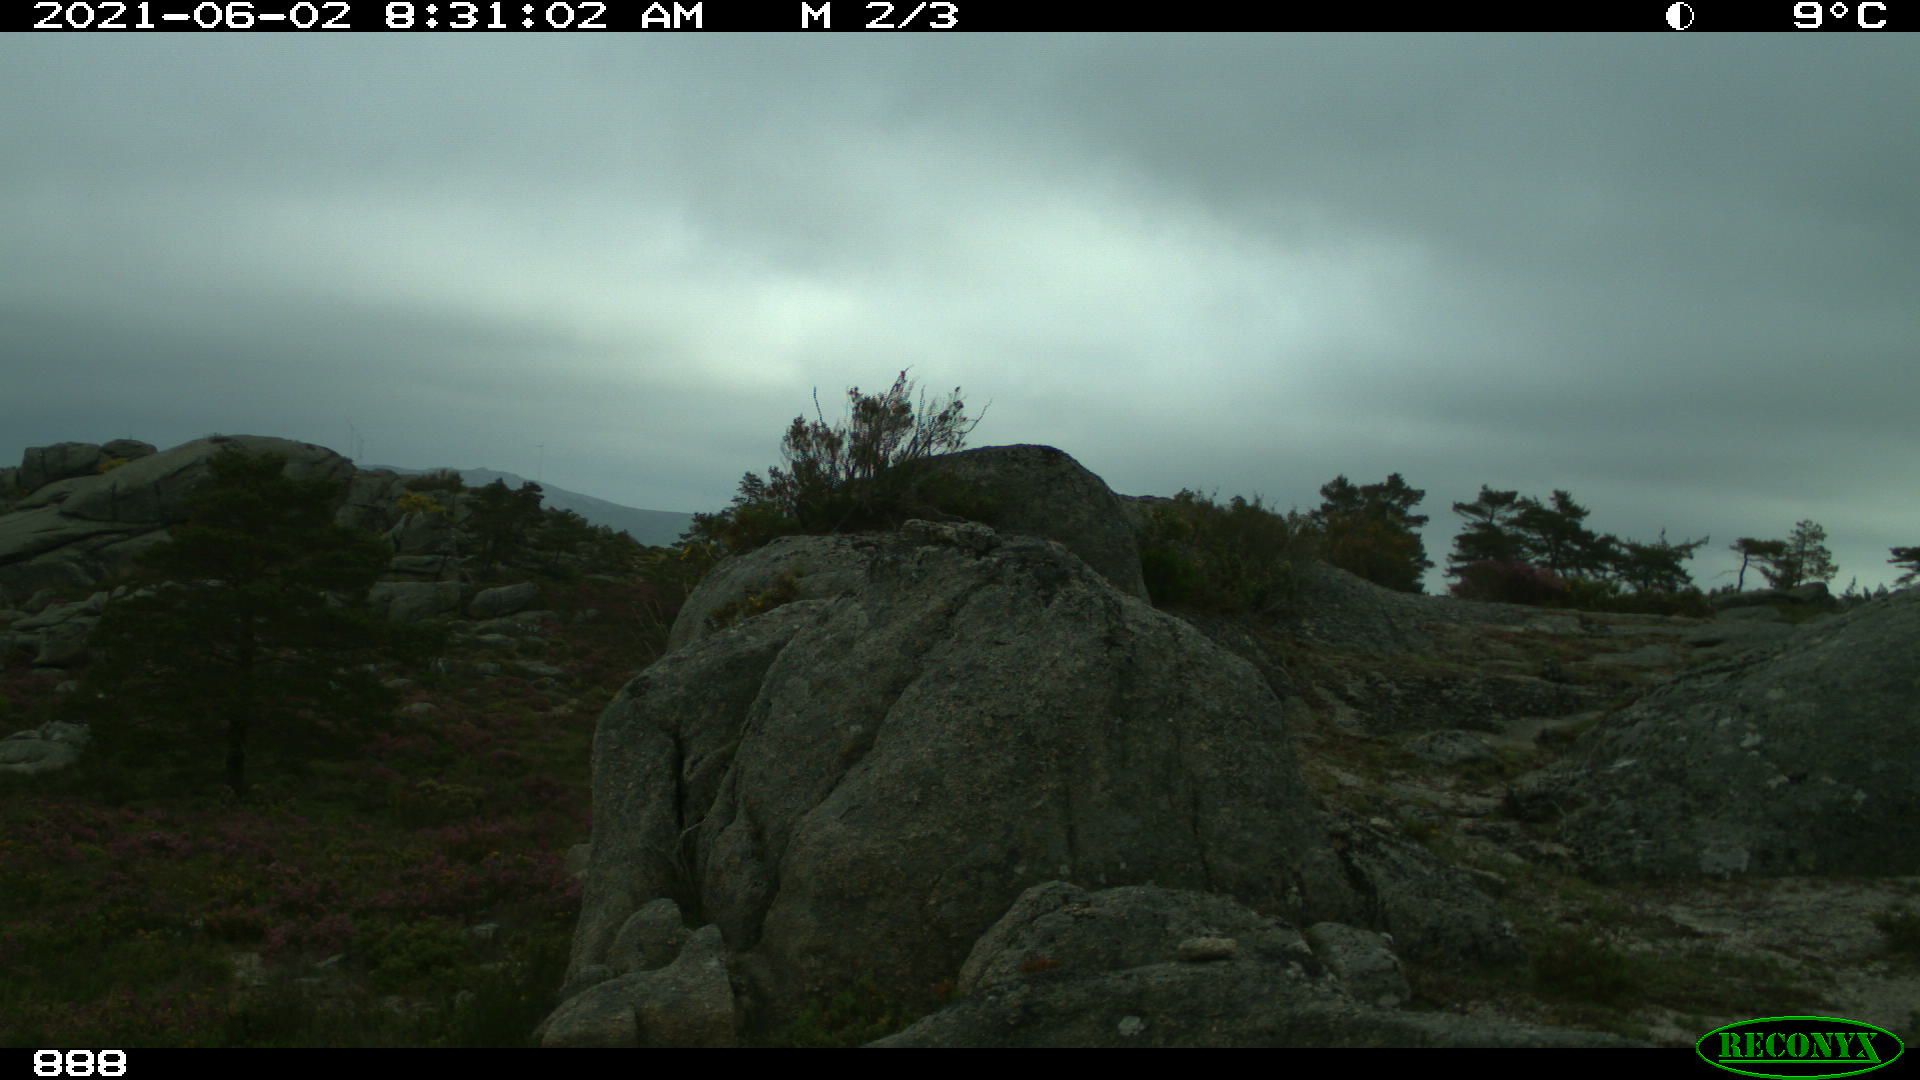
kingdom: Animalia
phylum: Chordata
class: Mammalia
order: Artiodactyla
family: Bovidae
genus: Bos
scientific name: Bos taurus
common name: Domesticated cattle
